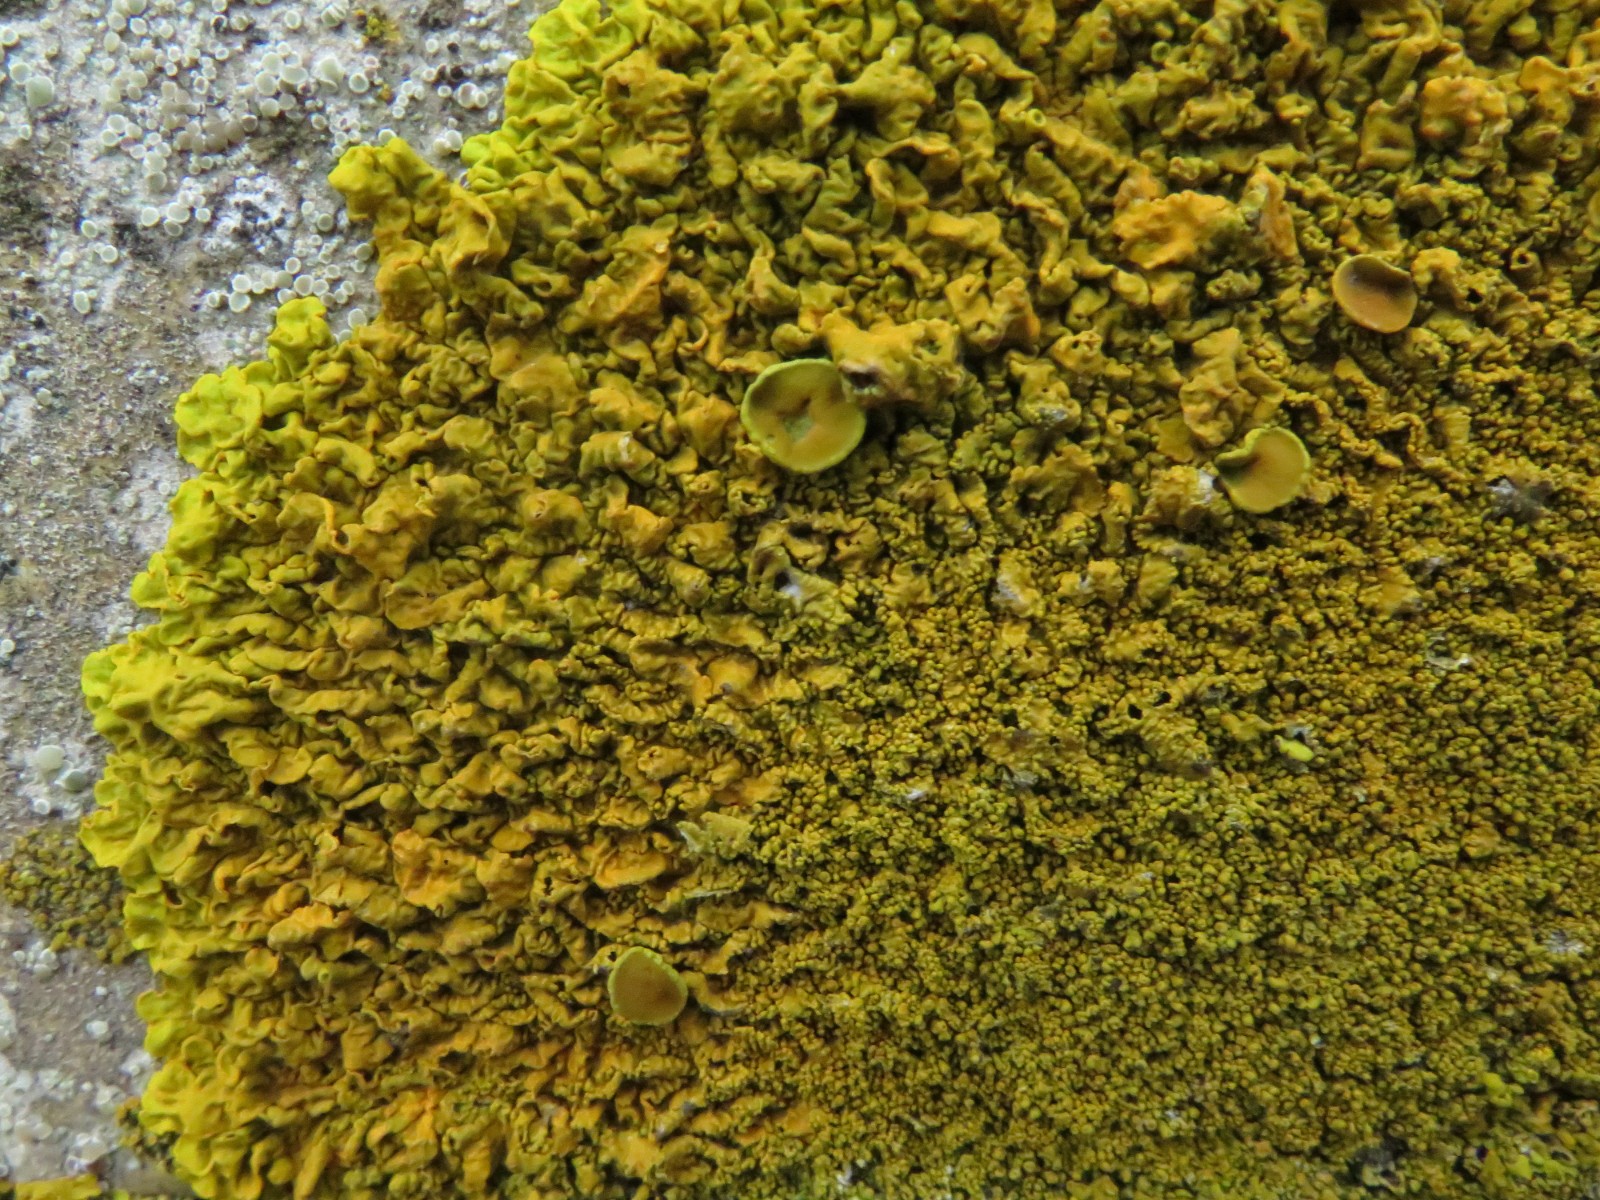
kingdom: Fungi
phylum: Ascomycota
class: Lecanoromycetes
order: Teloschistales
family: Teloschistaceae
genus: Xanthoria
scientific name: Xanthoria calcicola
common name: vortet væggelav
